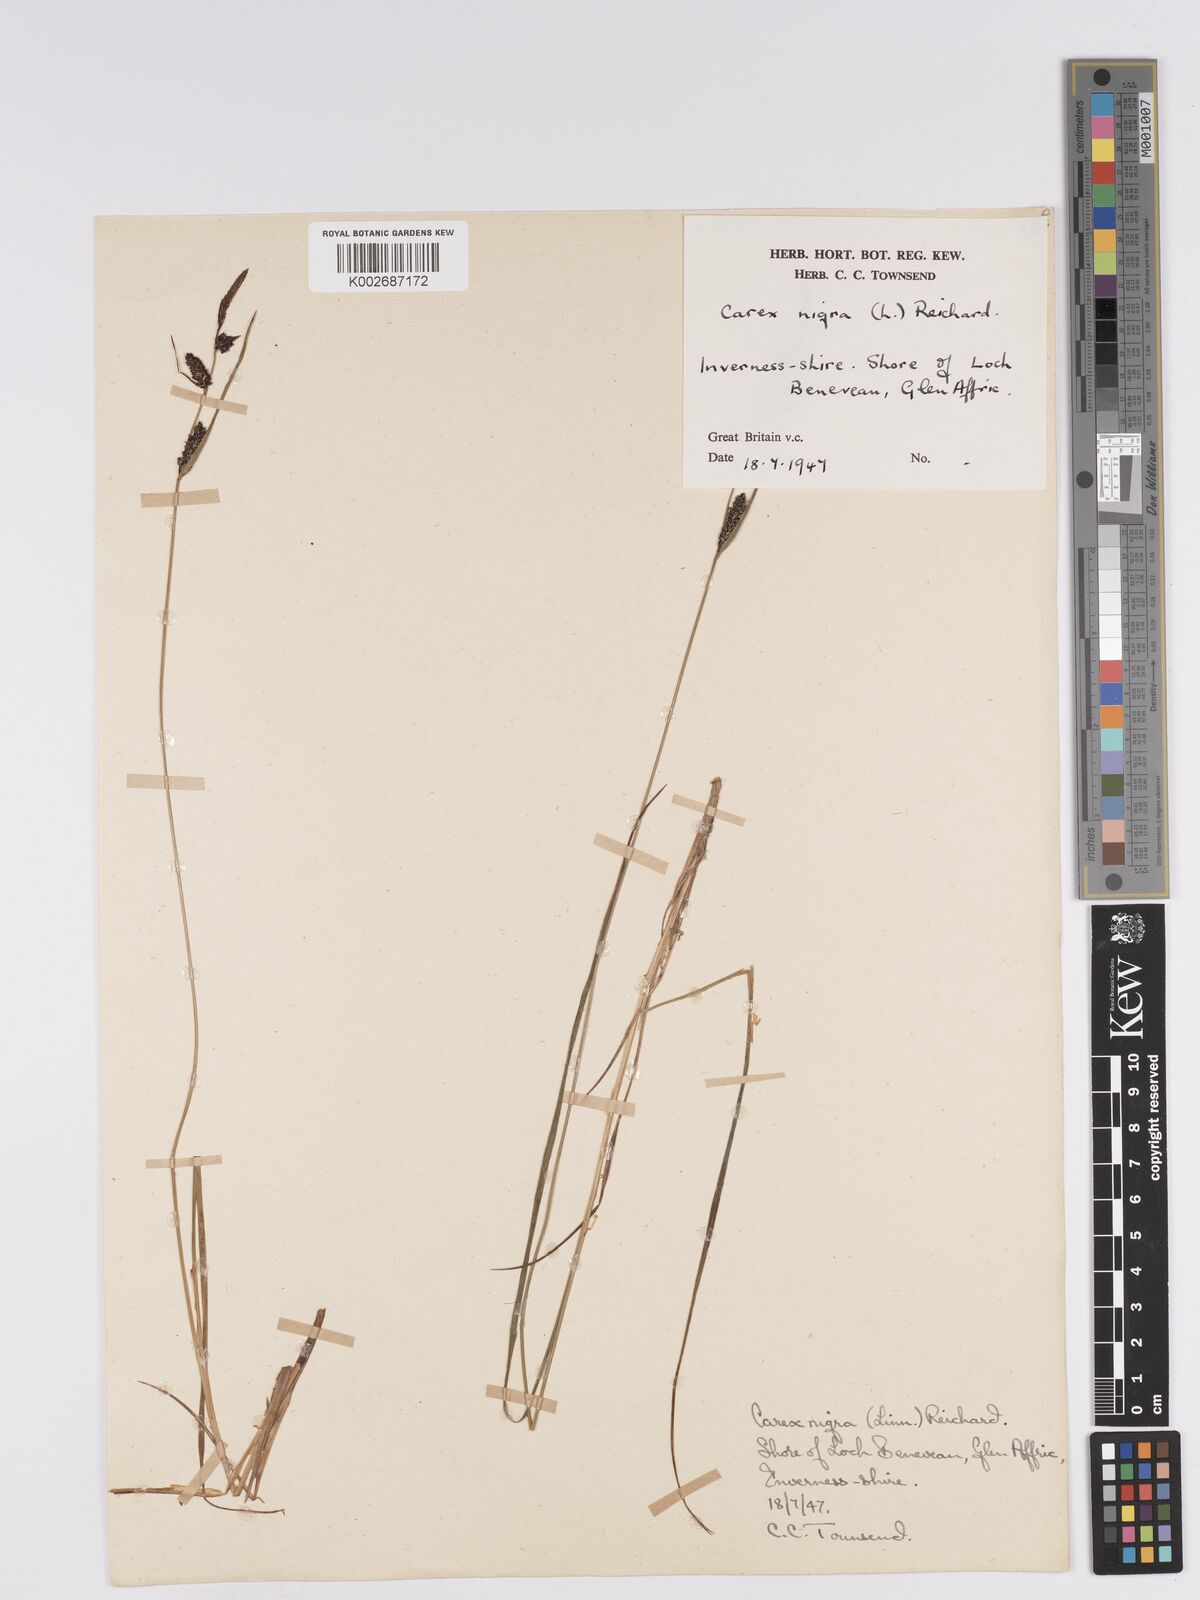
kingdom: Plantae
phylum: Tracheophyta
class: Liliopsida
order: Poales
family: Cyperaceae
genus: Carex
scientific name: Carex nigra
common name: Common sedge
